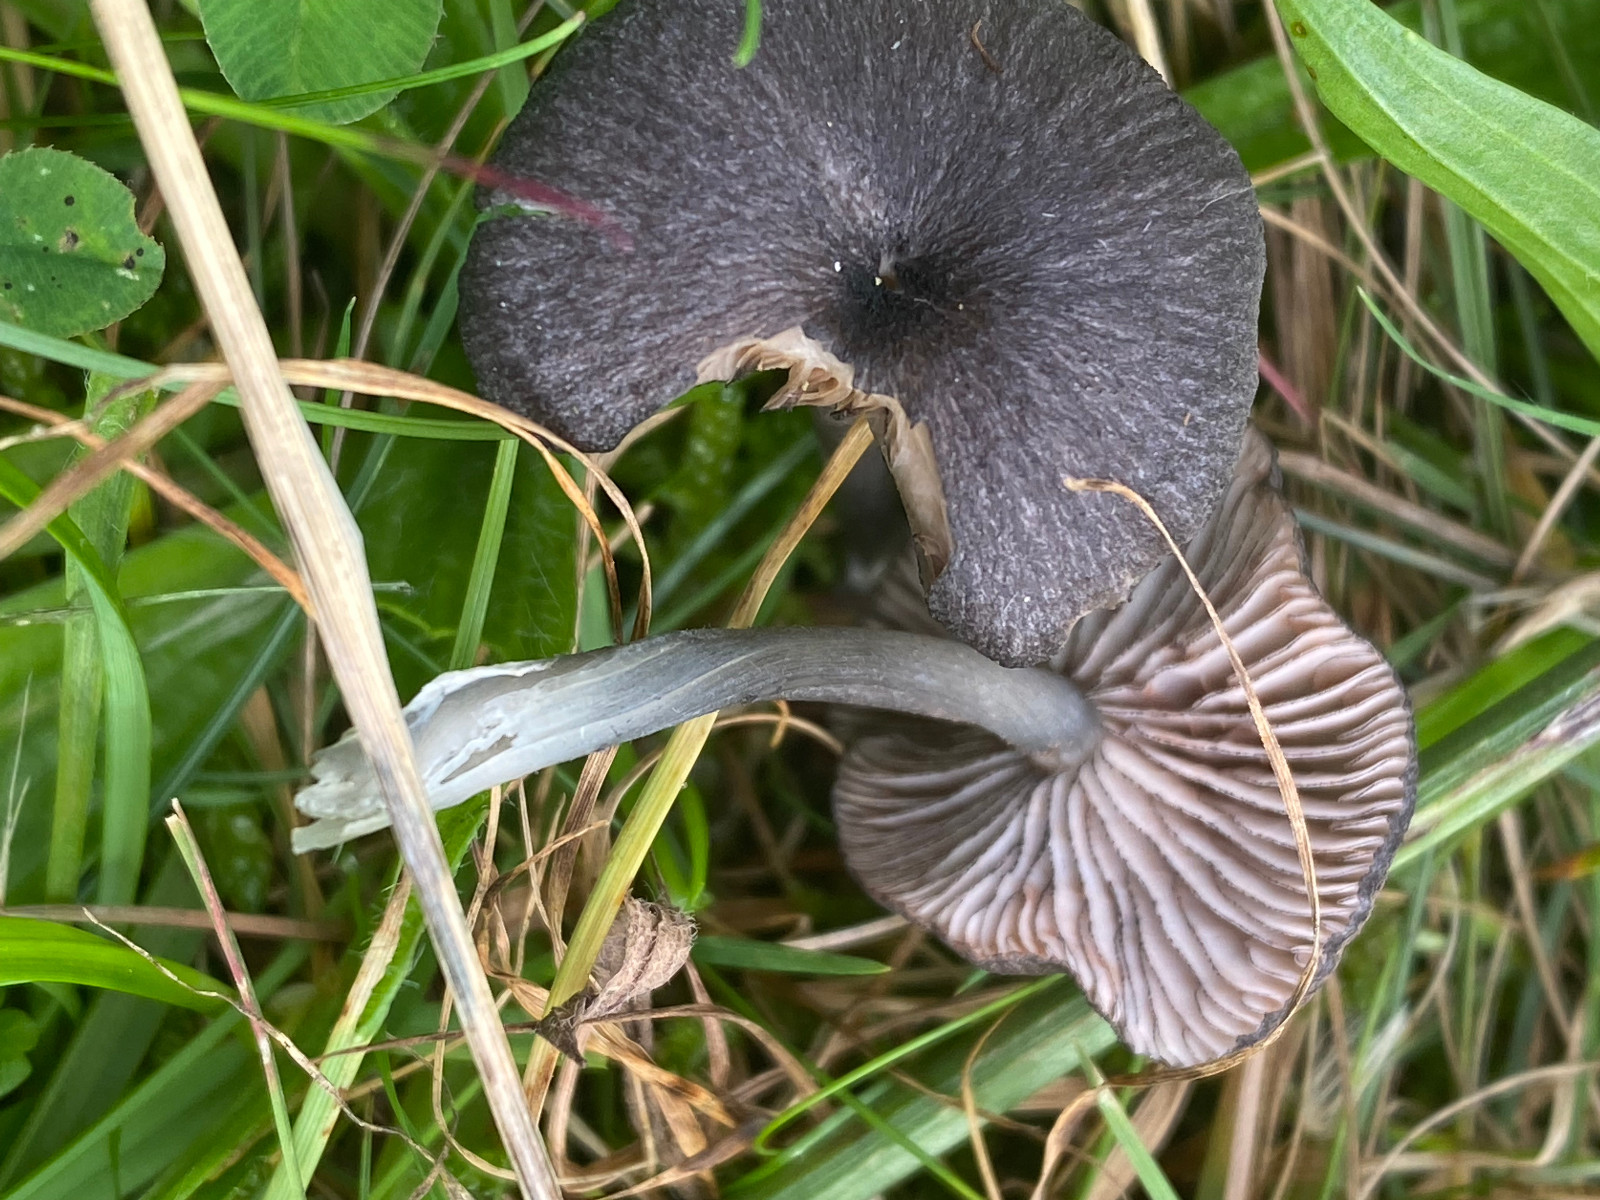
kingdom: Fungi
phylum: Basidiomycota
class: Agaricomycetes
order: Agaricales
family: Entolomataceae
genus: Entoloma
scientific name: Entoloma
